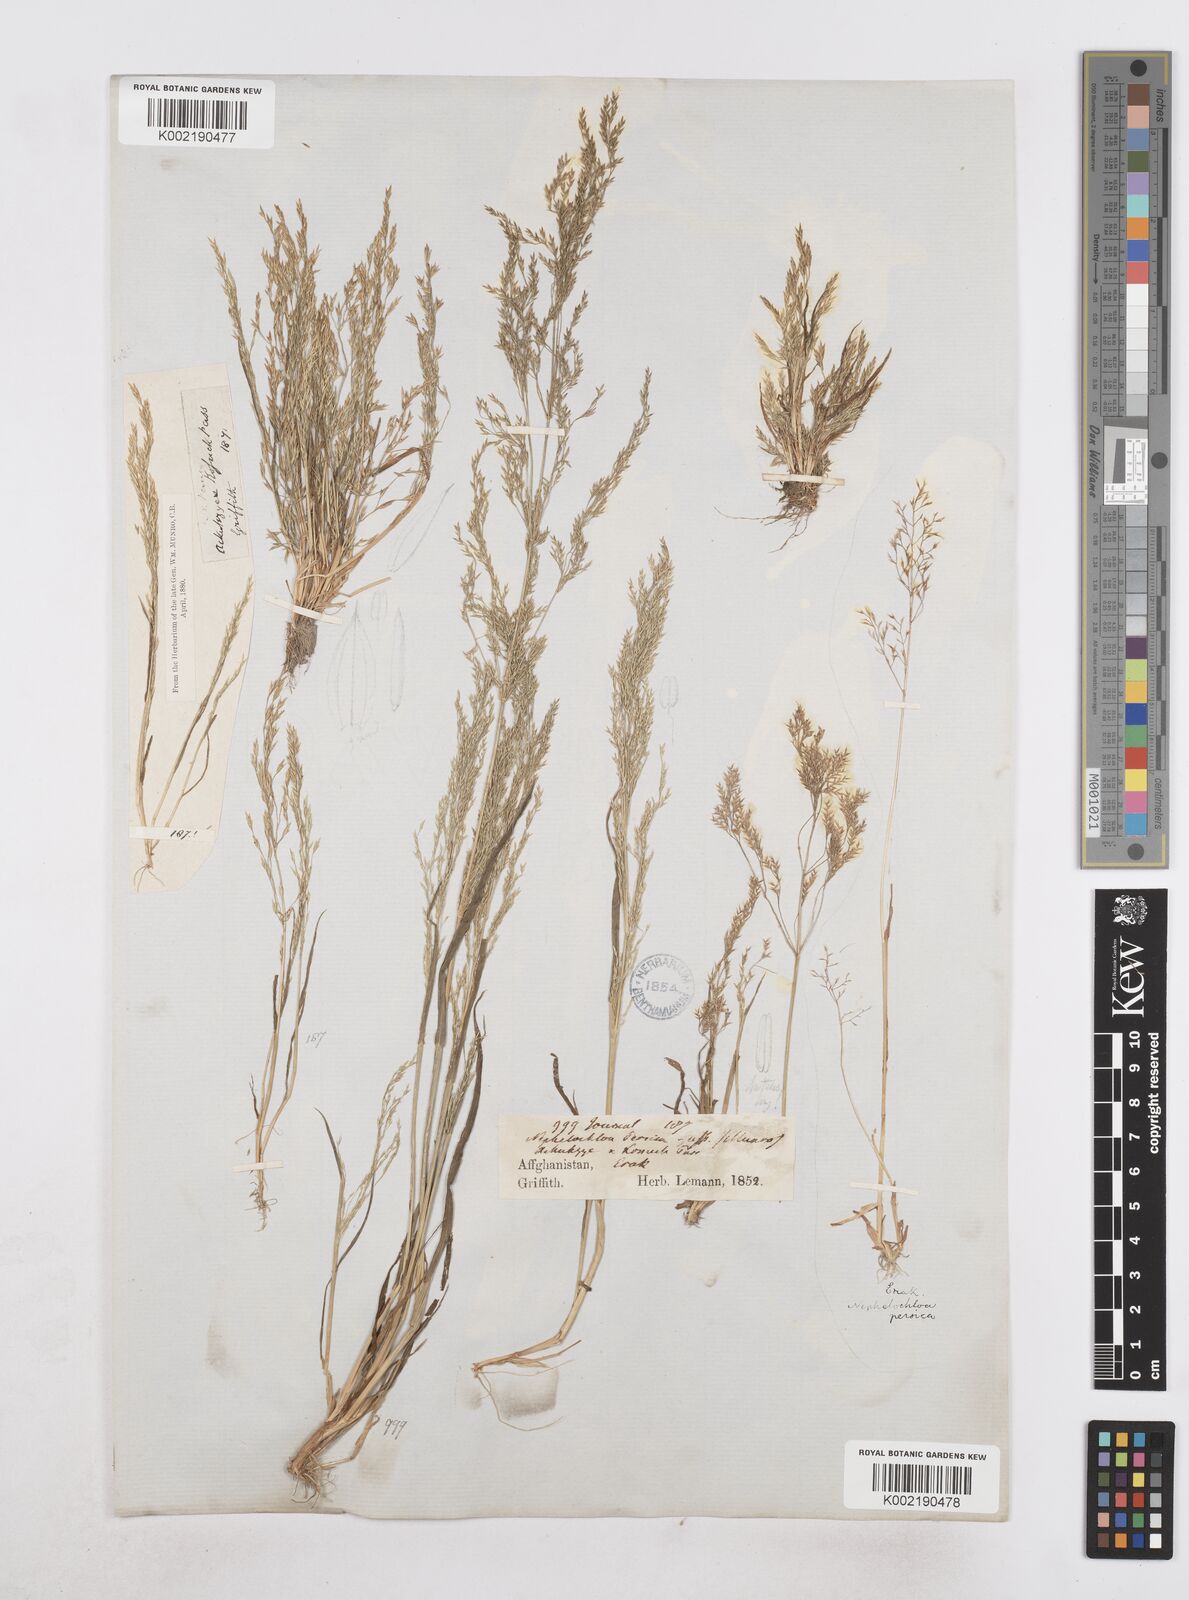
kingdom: Plantae
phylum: Tracheophyta
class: Liliopsida
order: Poales
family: Poaceae
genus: Poa
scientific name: Poa diaphora
